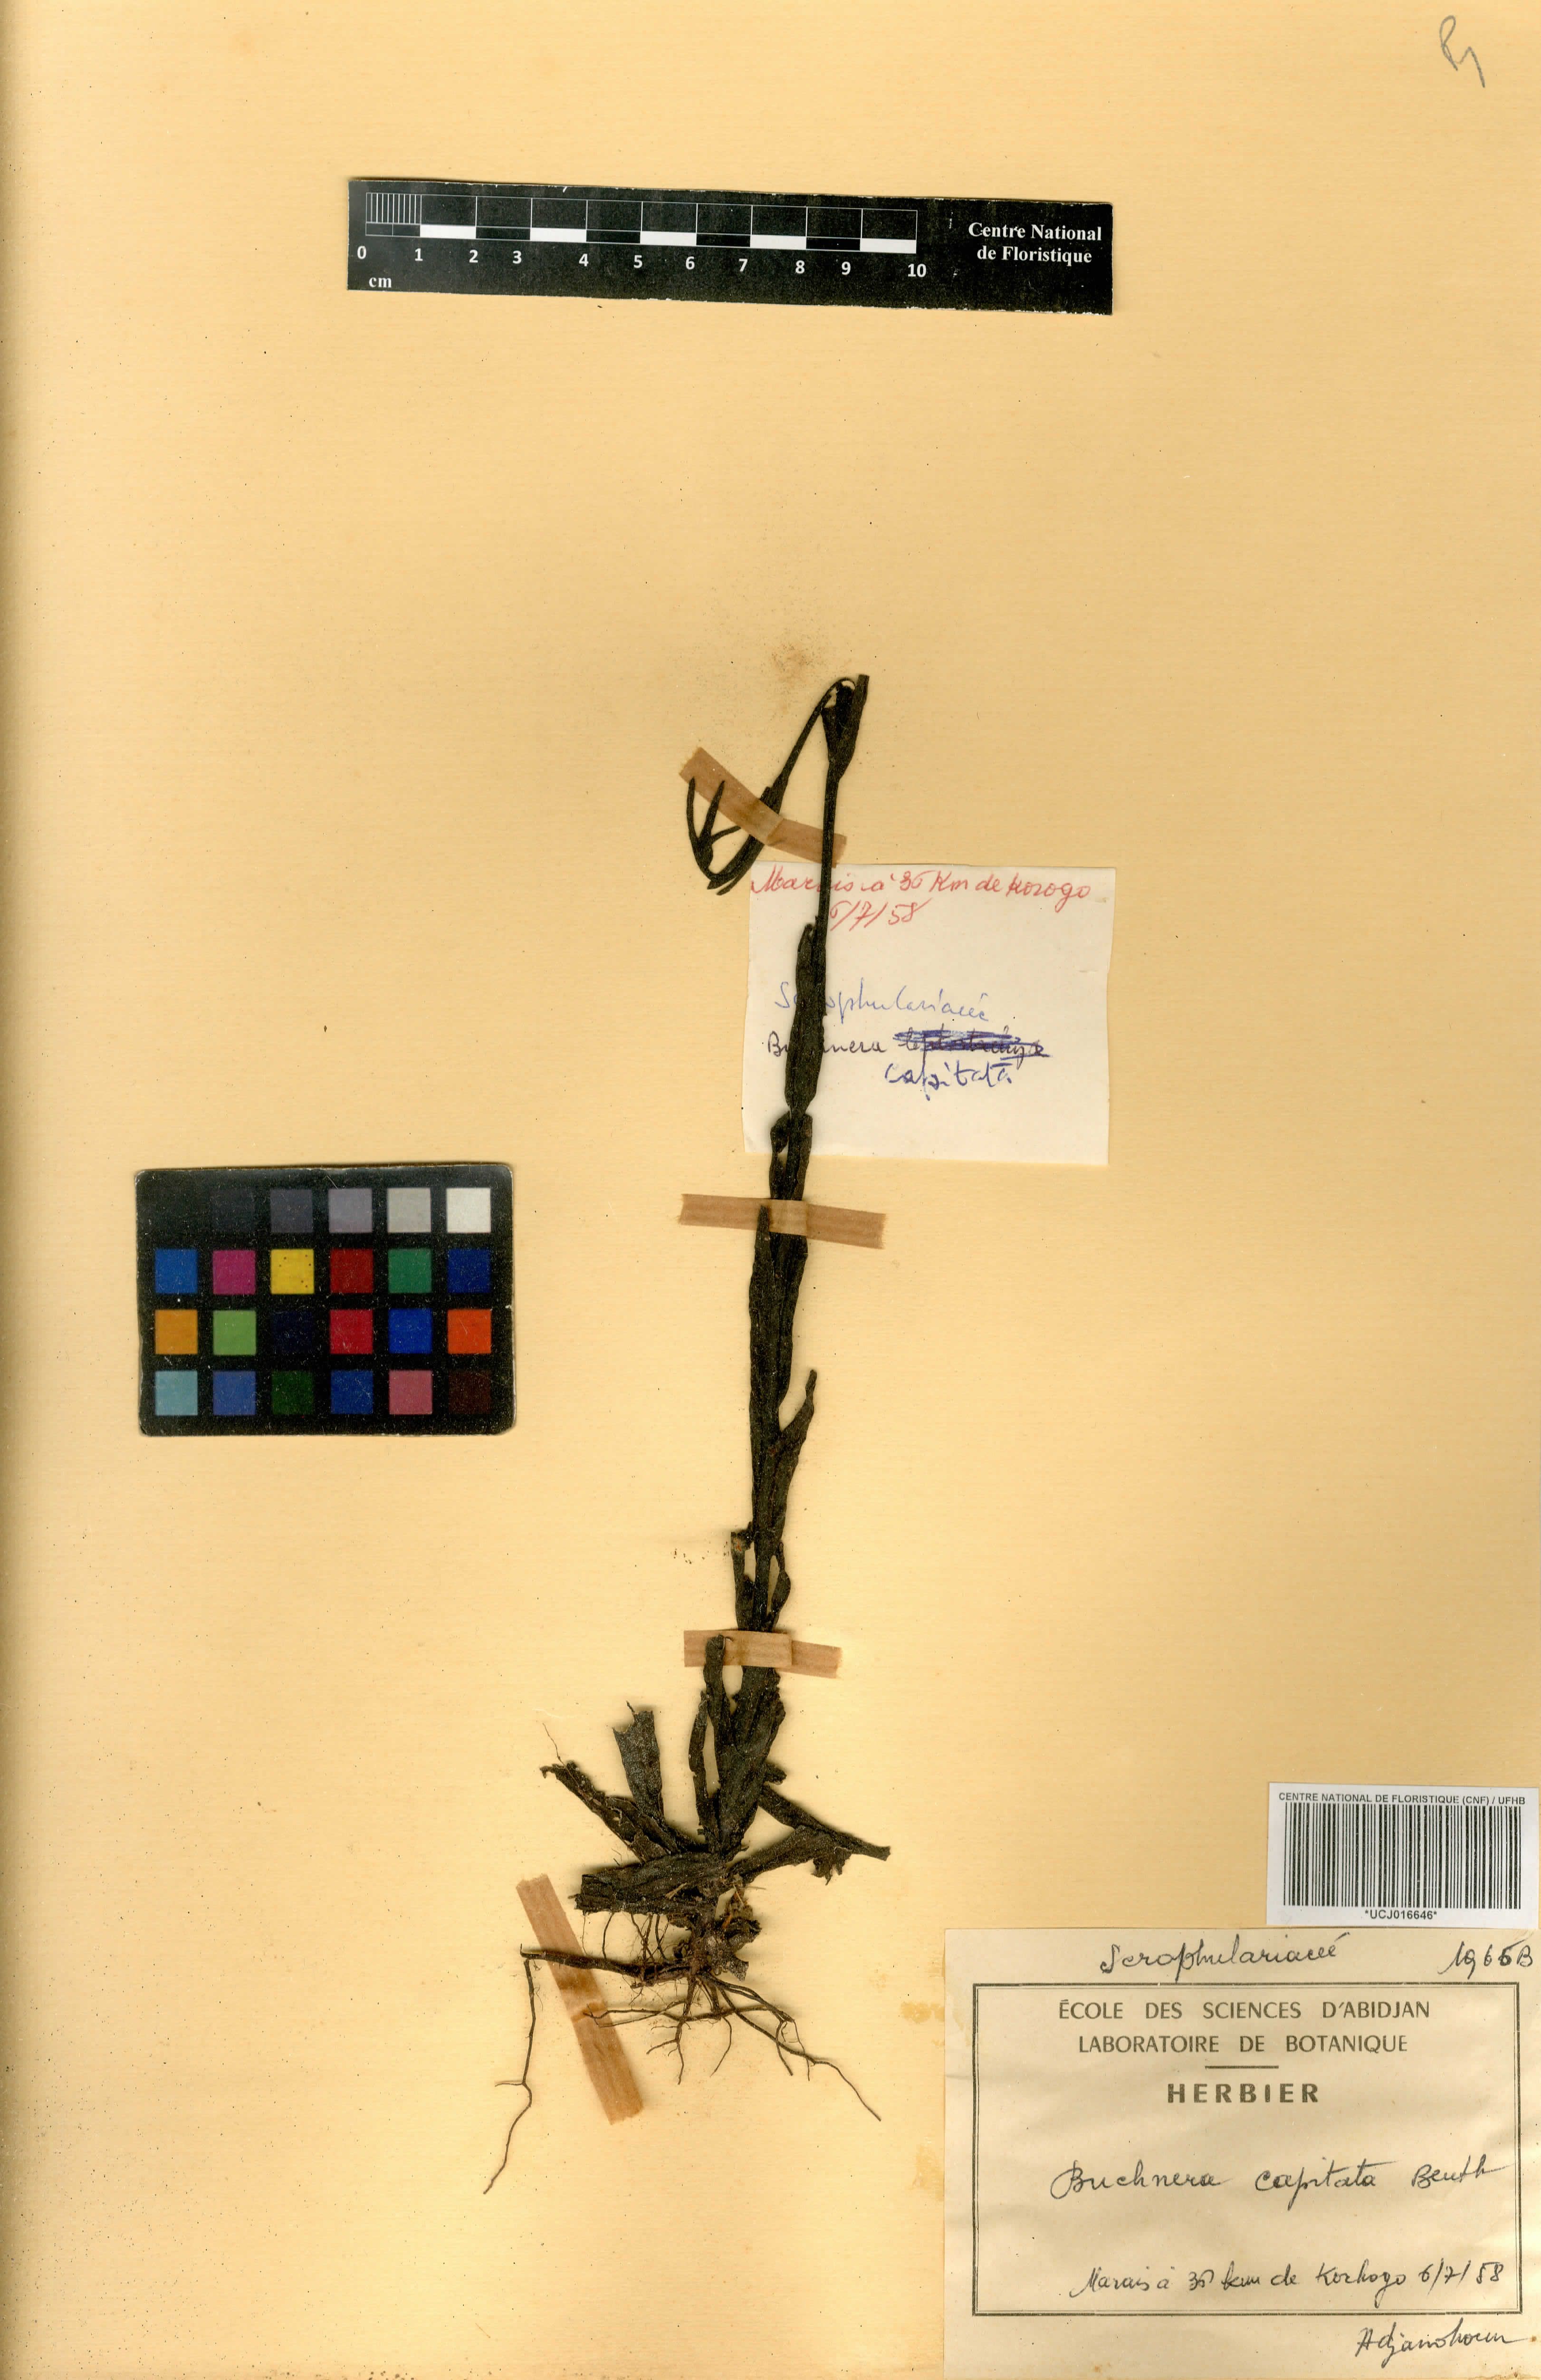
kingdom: Plantae
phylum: Tracheophyta
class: Magnoliopsida
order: Lamiales
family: Orobanchaceae
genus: Buchnera
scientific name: Buchnera decandollei
